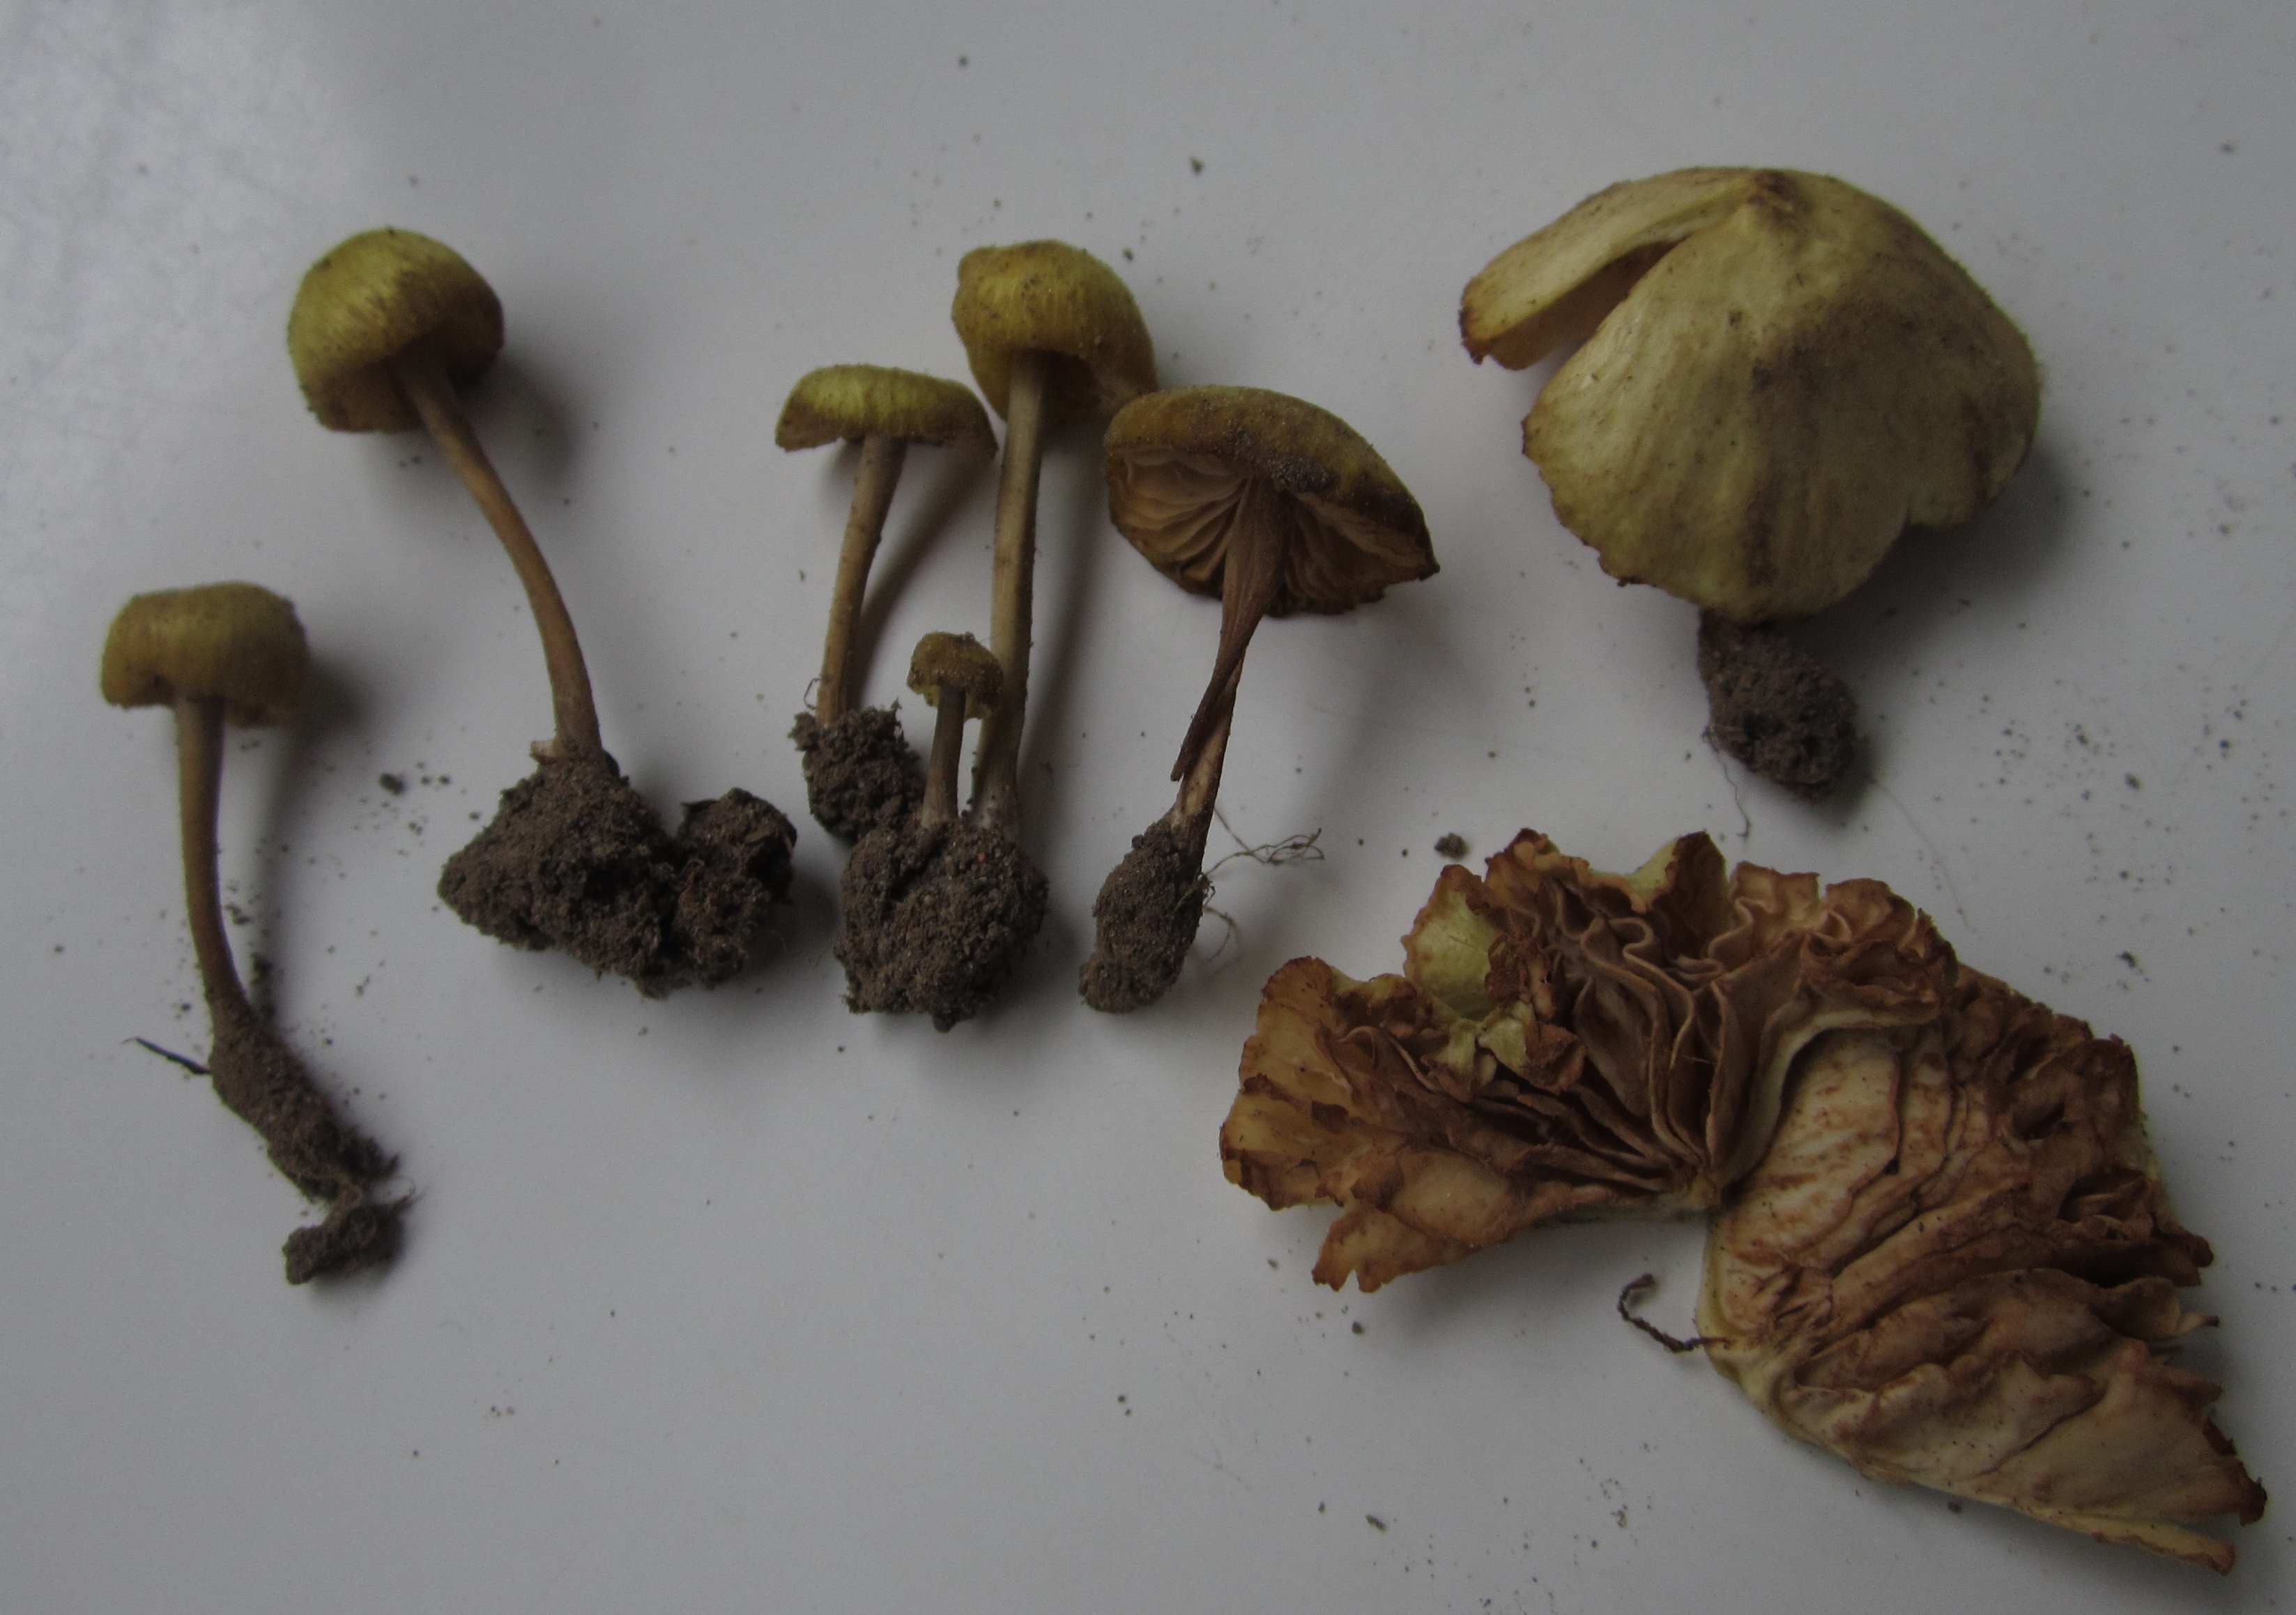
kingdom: Fungi
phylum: Basidiomycota
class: Agaricomycetes
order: Agaricales
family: Entolomataceae
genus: Entoloma
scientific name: Entoloma pleopodium
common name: duftende rødblad
